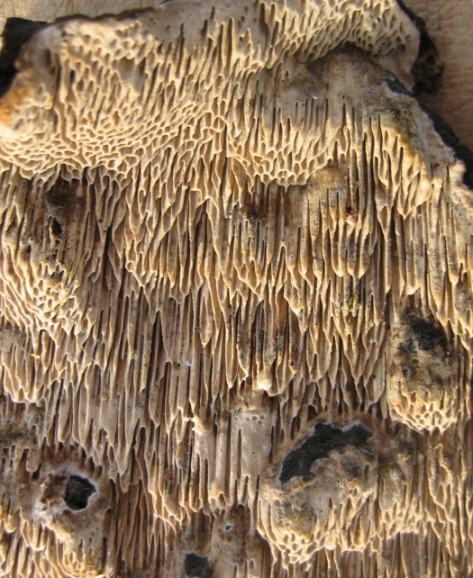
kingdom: Fungi
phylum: Basidiomycota
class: Agaricomycetes
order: Polyporales
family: Polyporaceae
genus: Podofomes
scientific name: Podofomes mollis
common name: blød begporesvamp
